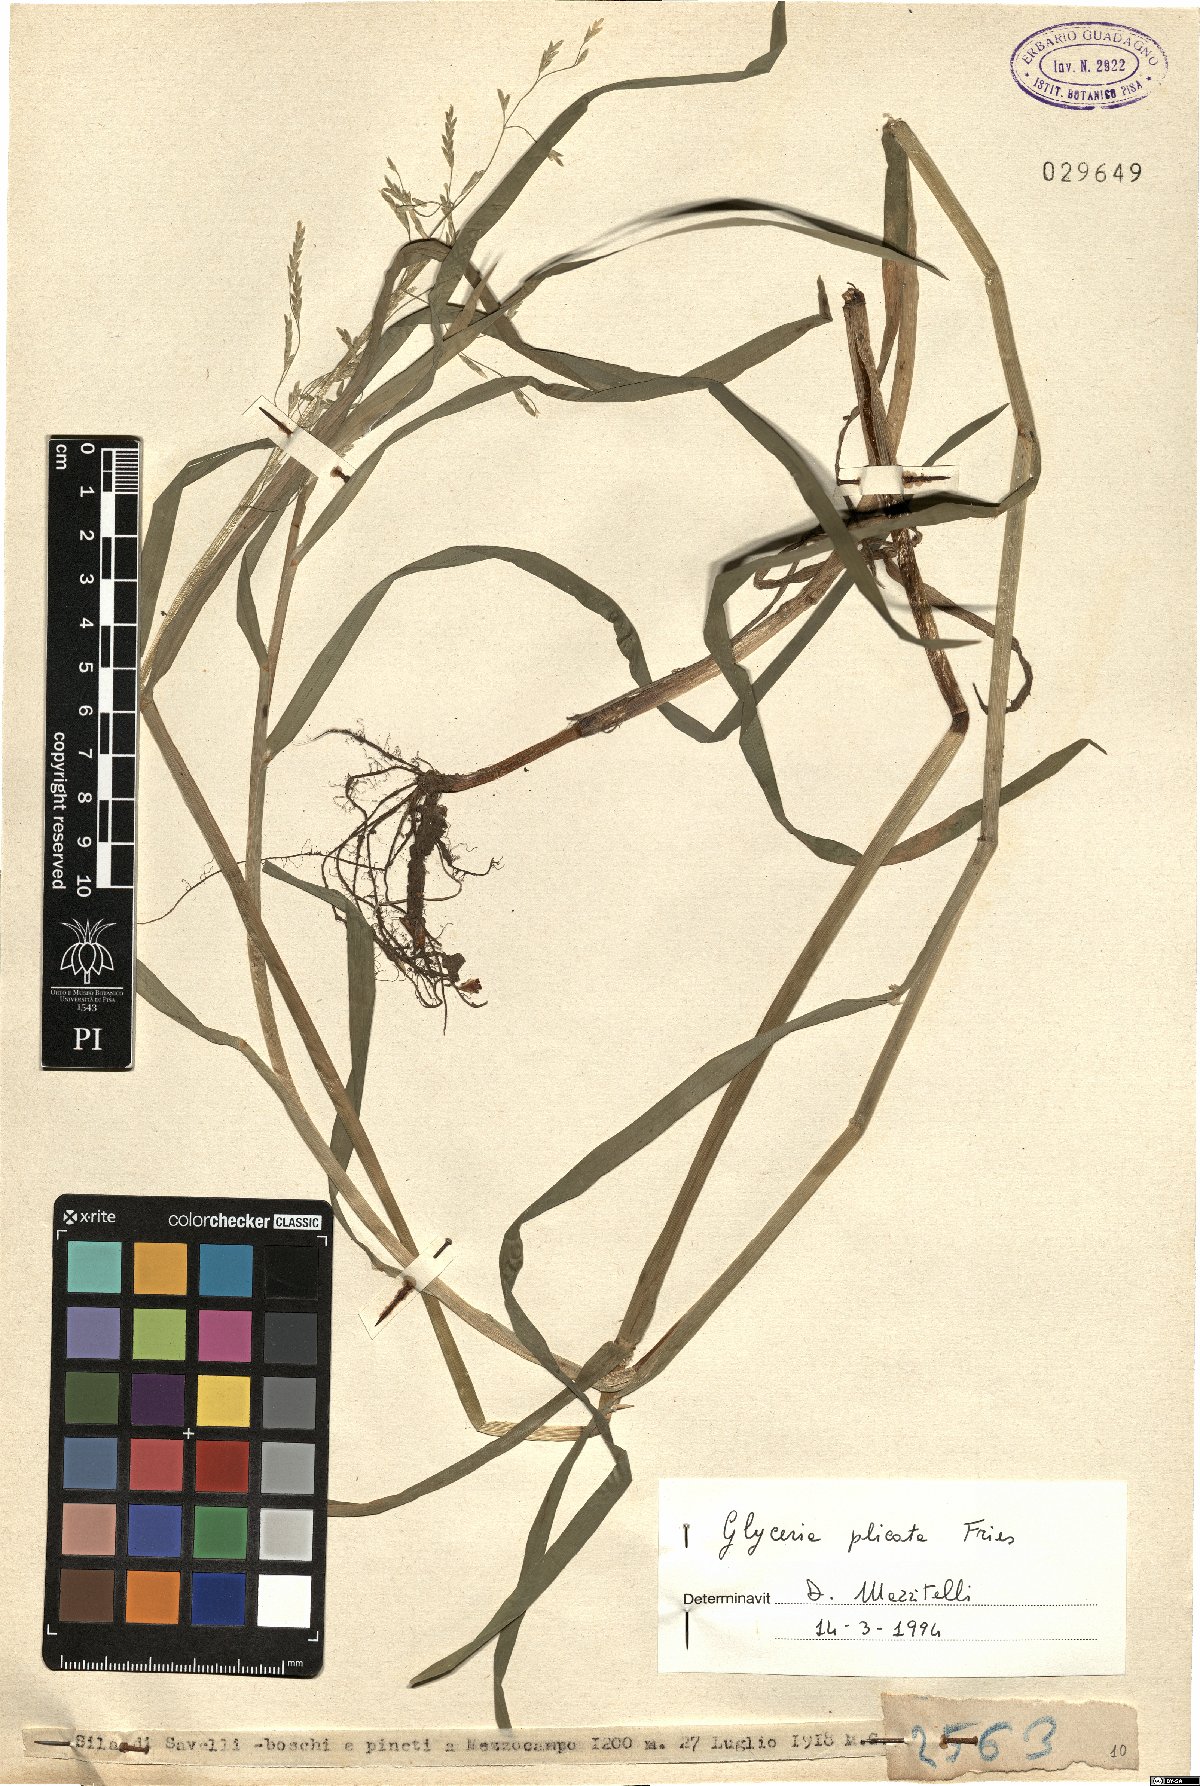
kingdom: Plantae
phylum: Tracheophyta
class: Liliopsida
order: Poales
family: Poaceae
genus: Glyceria
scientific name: Glyceria notata
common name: Plicate sweet-grass
